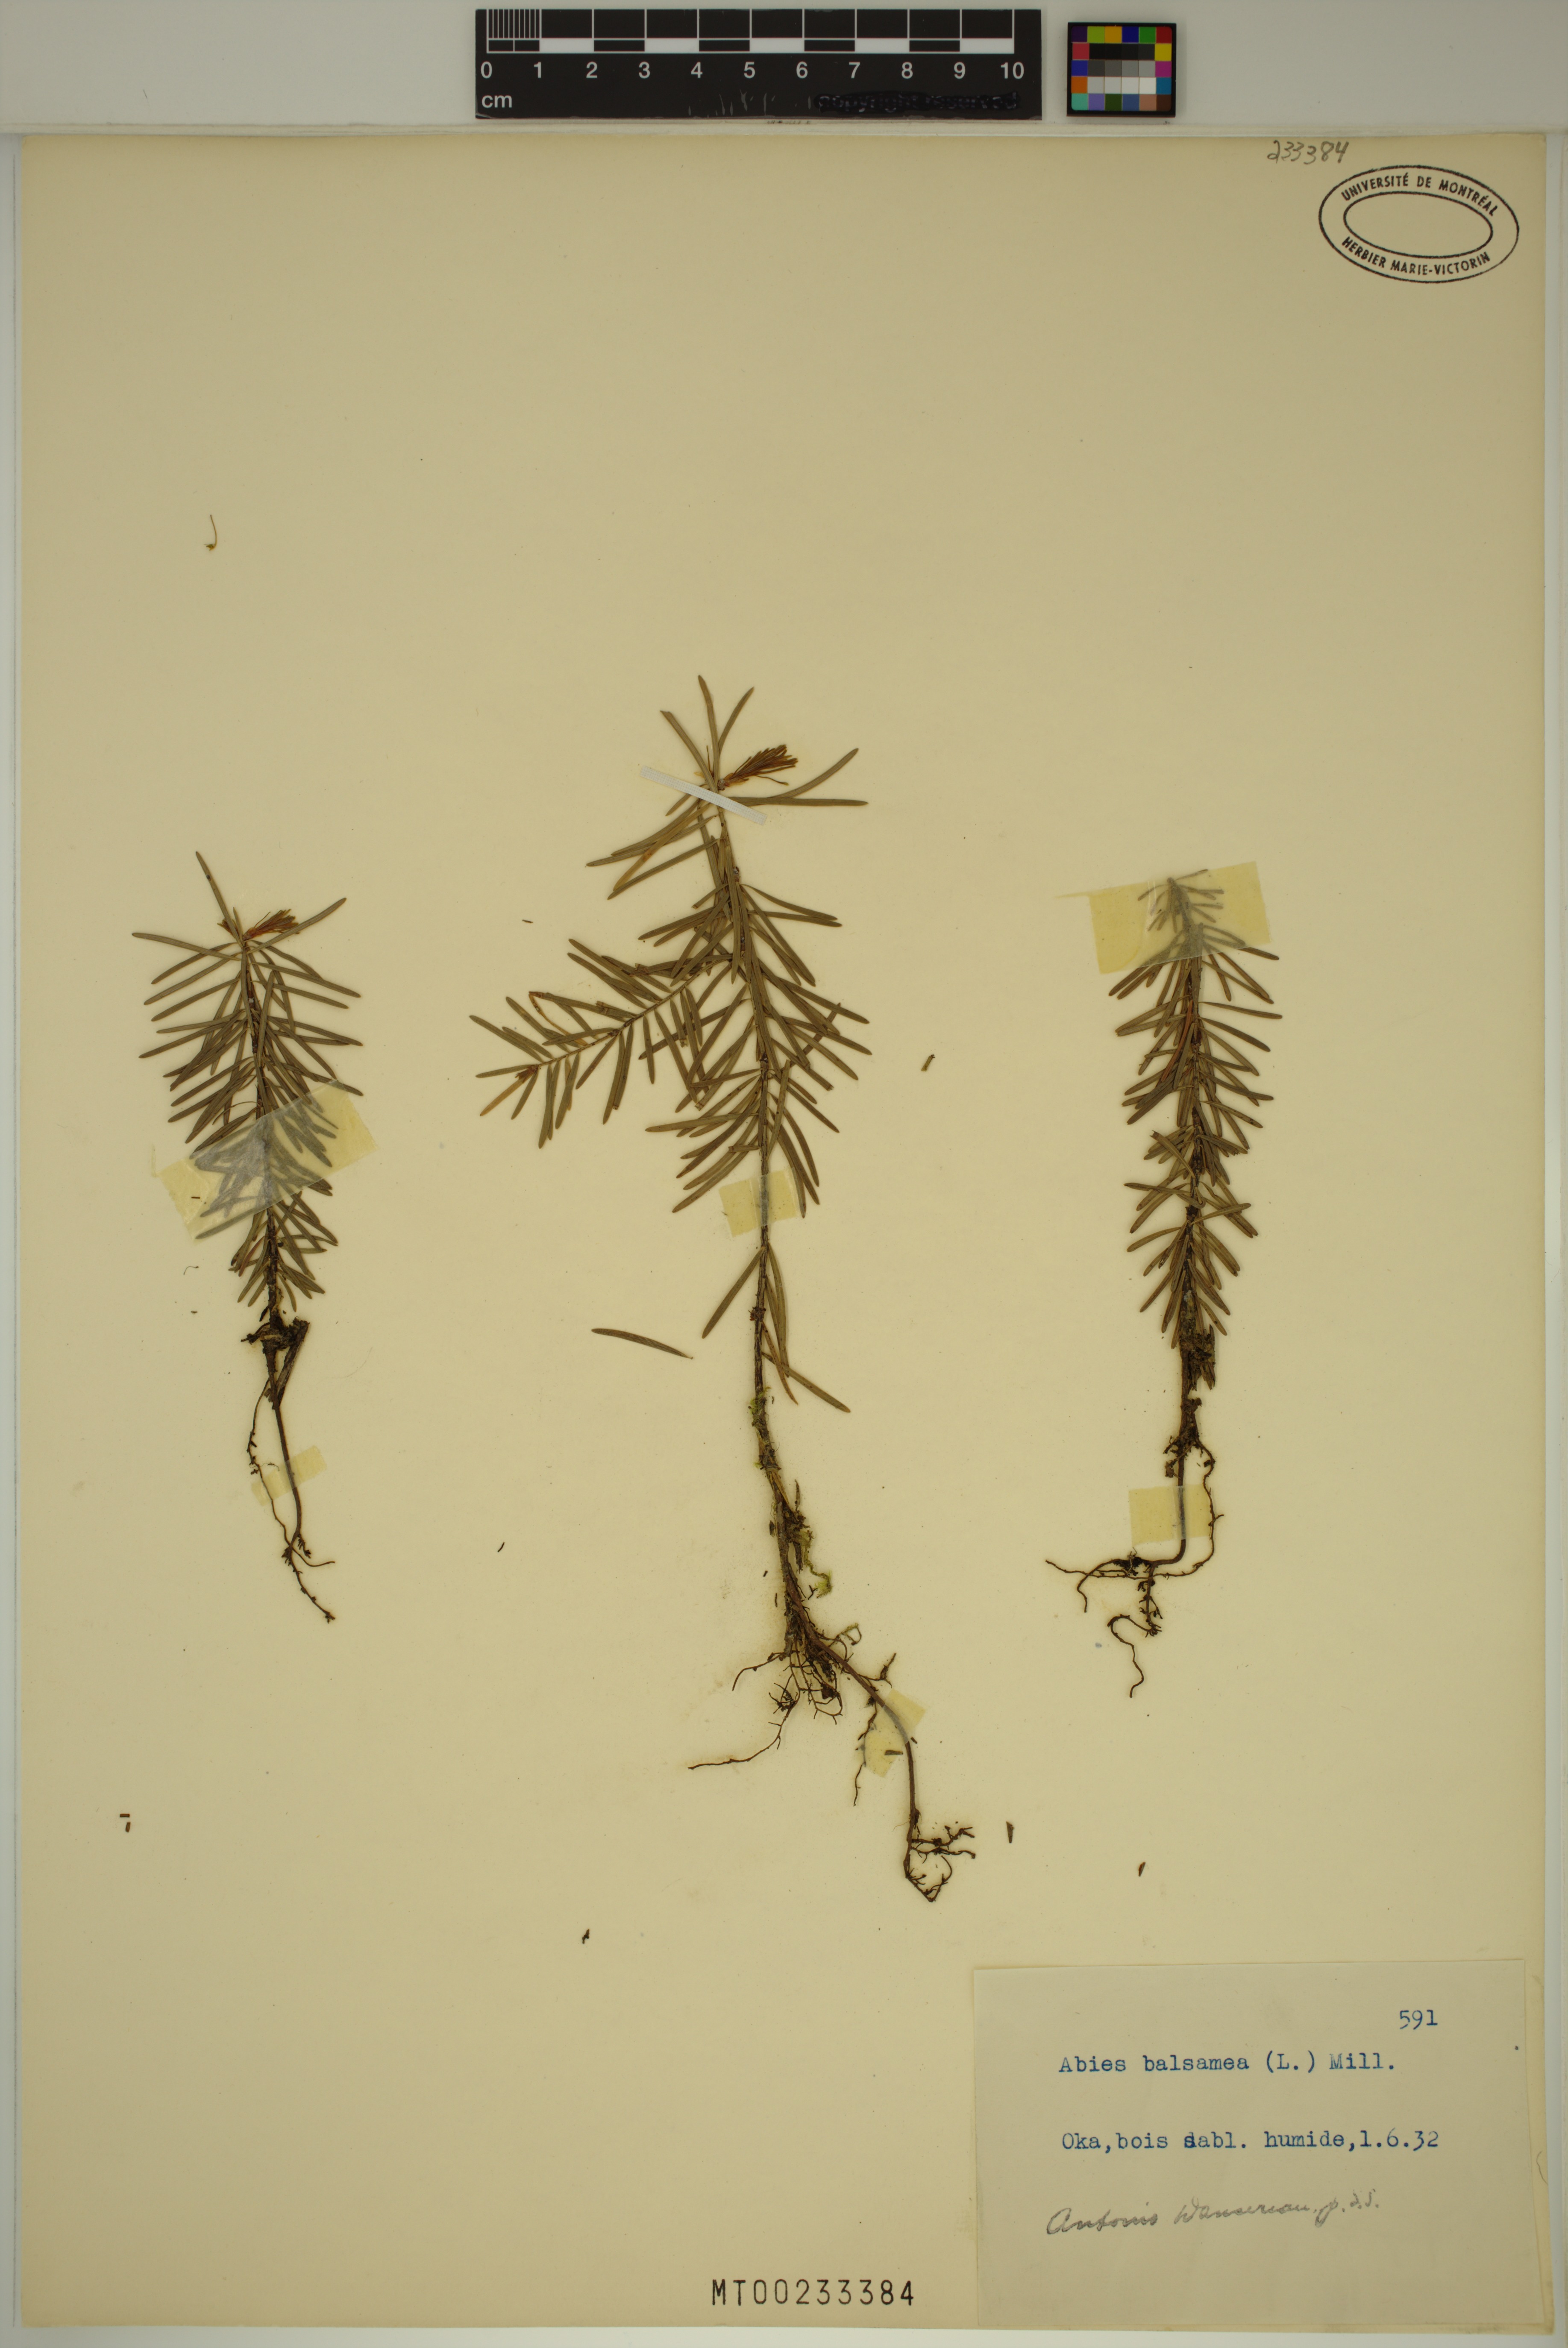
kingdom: Plantae
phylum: Tracheophyta
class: Pinopsida
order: Pinales
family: Pinaceae
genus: Abies
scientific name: Abies balsamea
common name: Balsam fir
